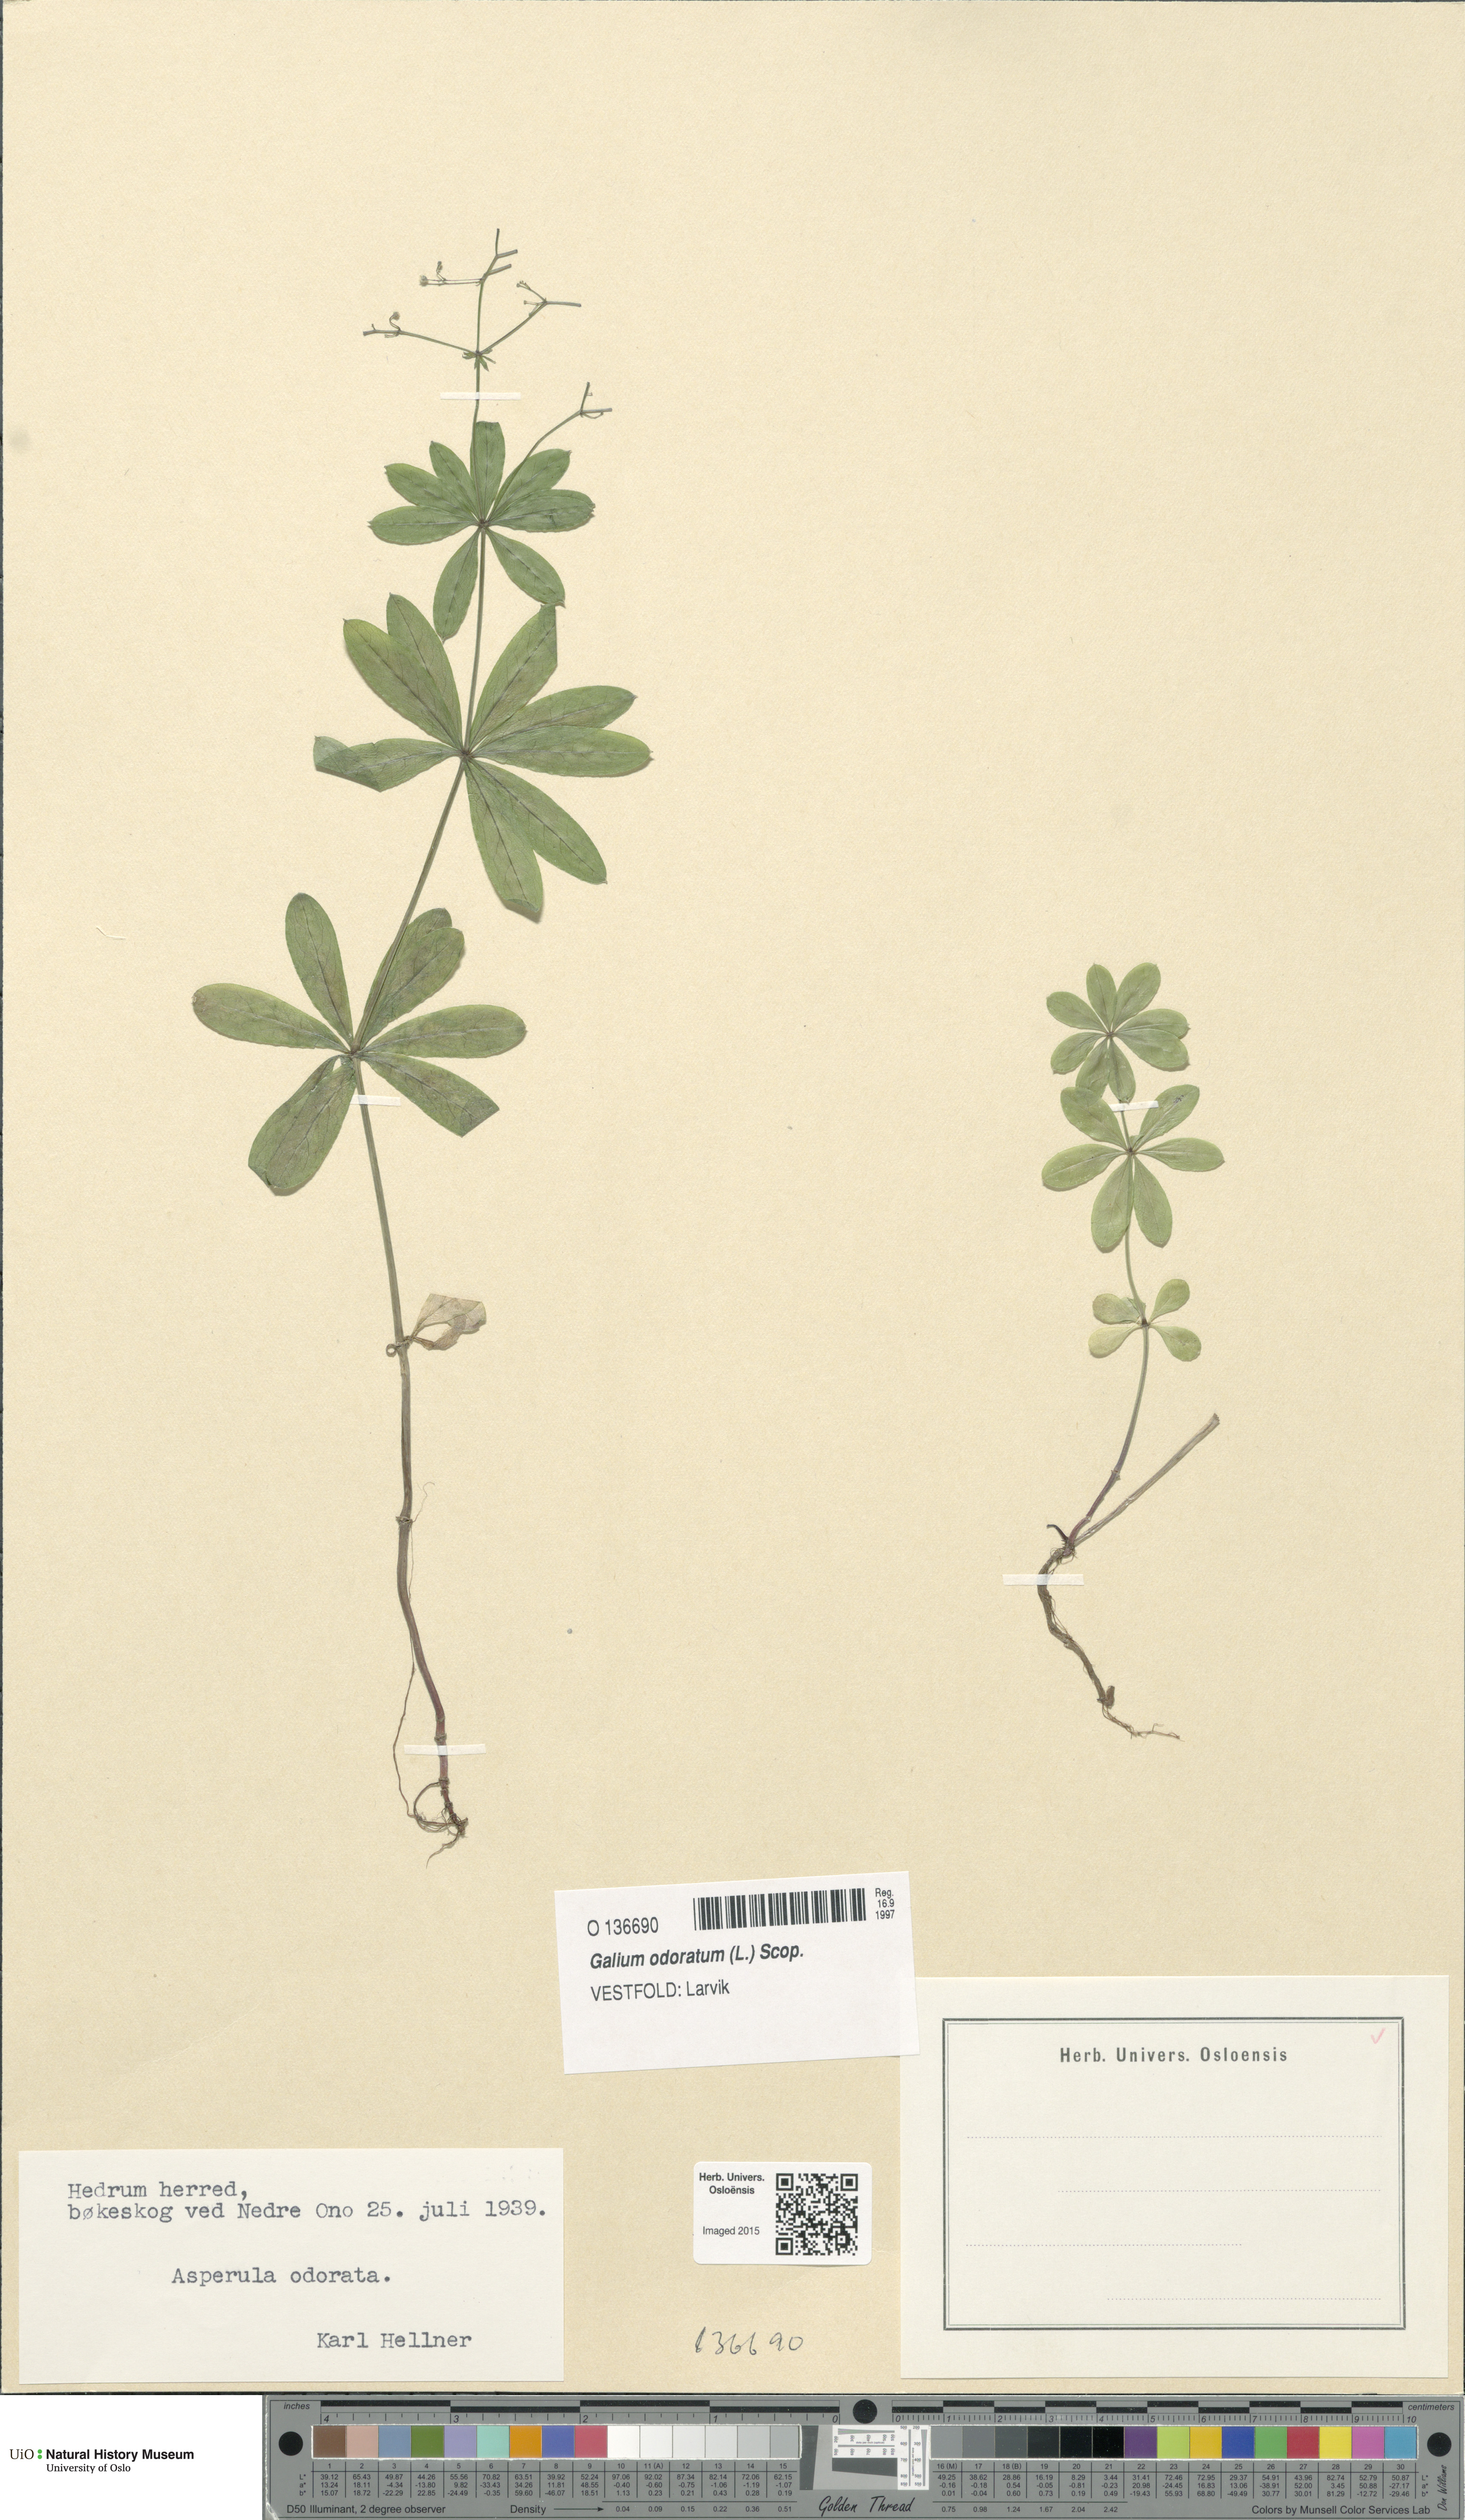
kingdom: Plantae
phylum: Tracheophyta
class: Magnoliopsida
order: Gentianales
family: Rubiaceae
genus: Galium
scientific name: Galium odoratum
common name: Sweet woodruff
